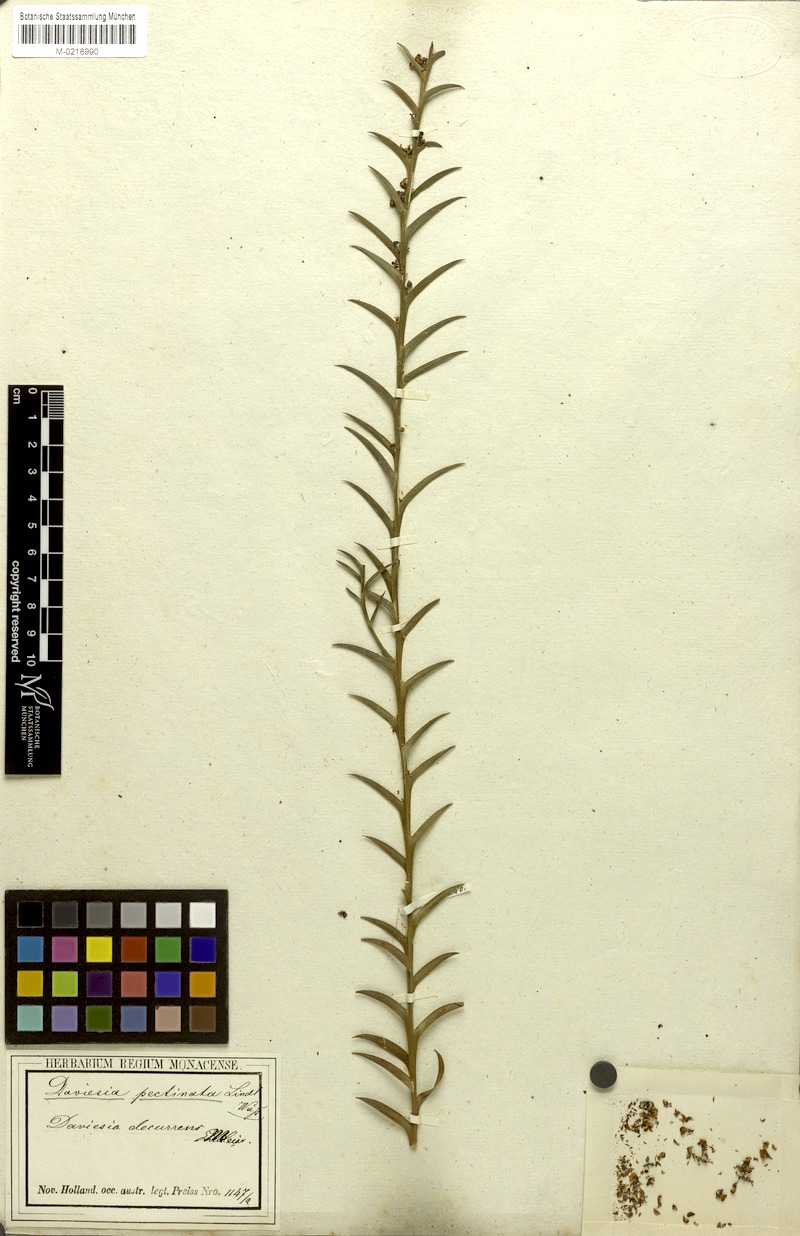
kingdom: Plantae
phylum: Tracheophyta
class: Magnoliopsida
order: Fabales
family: Fabaceae
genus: Daviesia
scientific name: Daviesia decurrens
